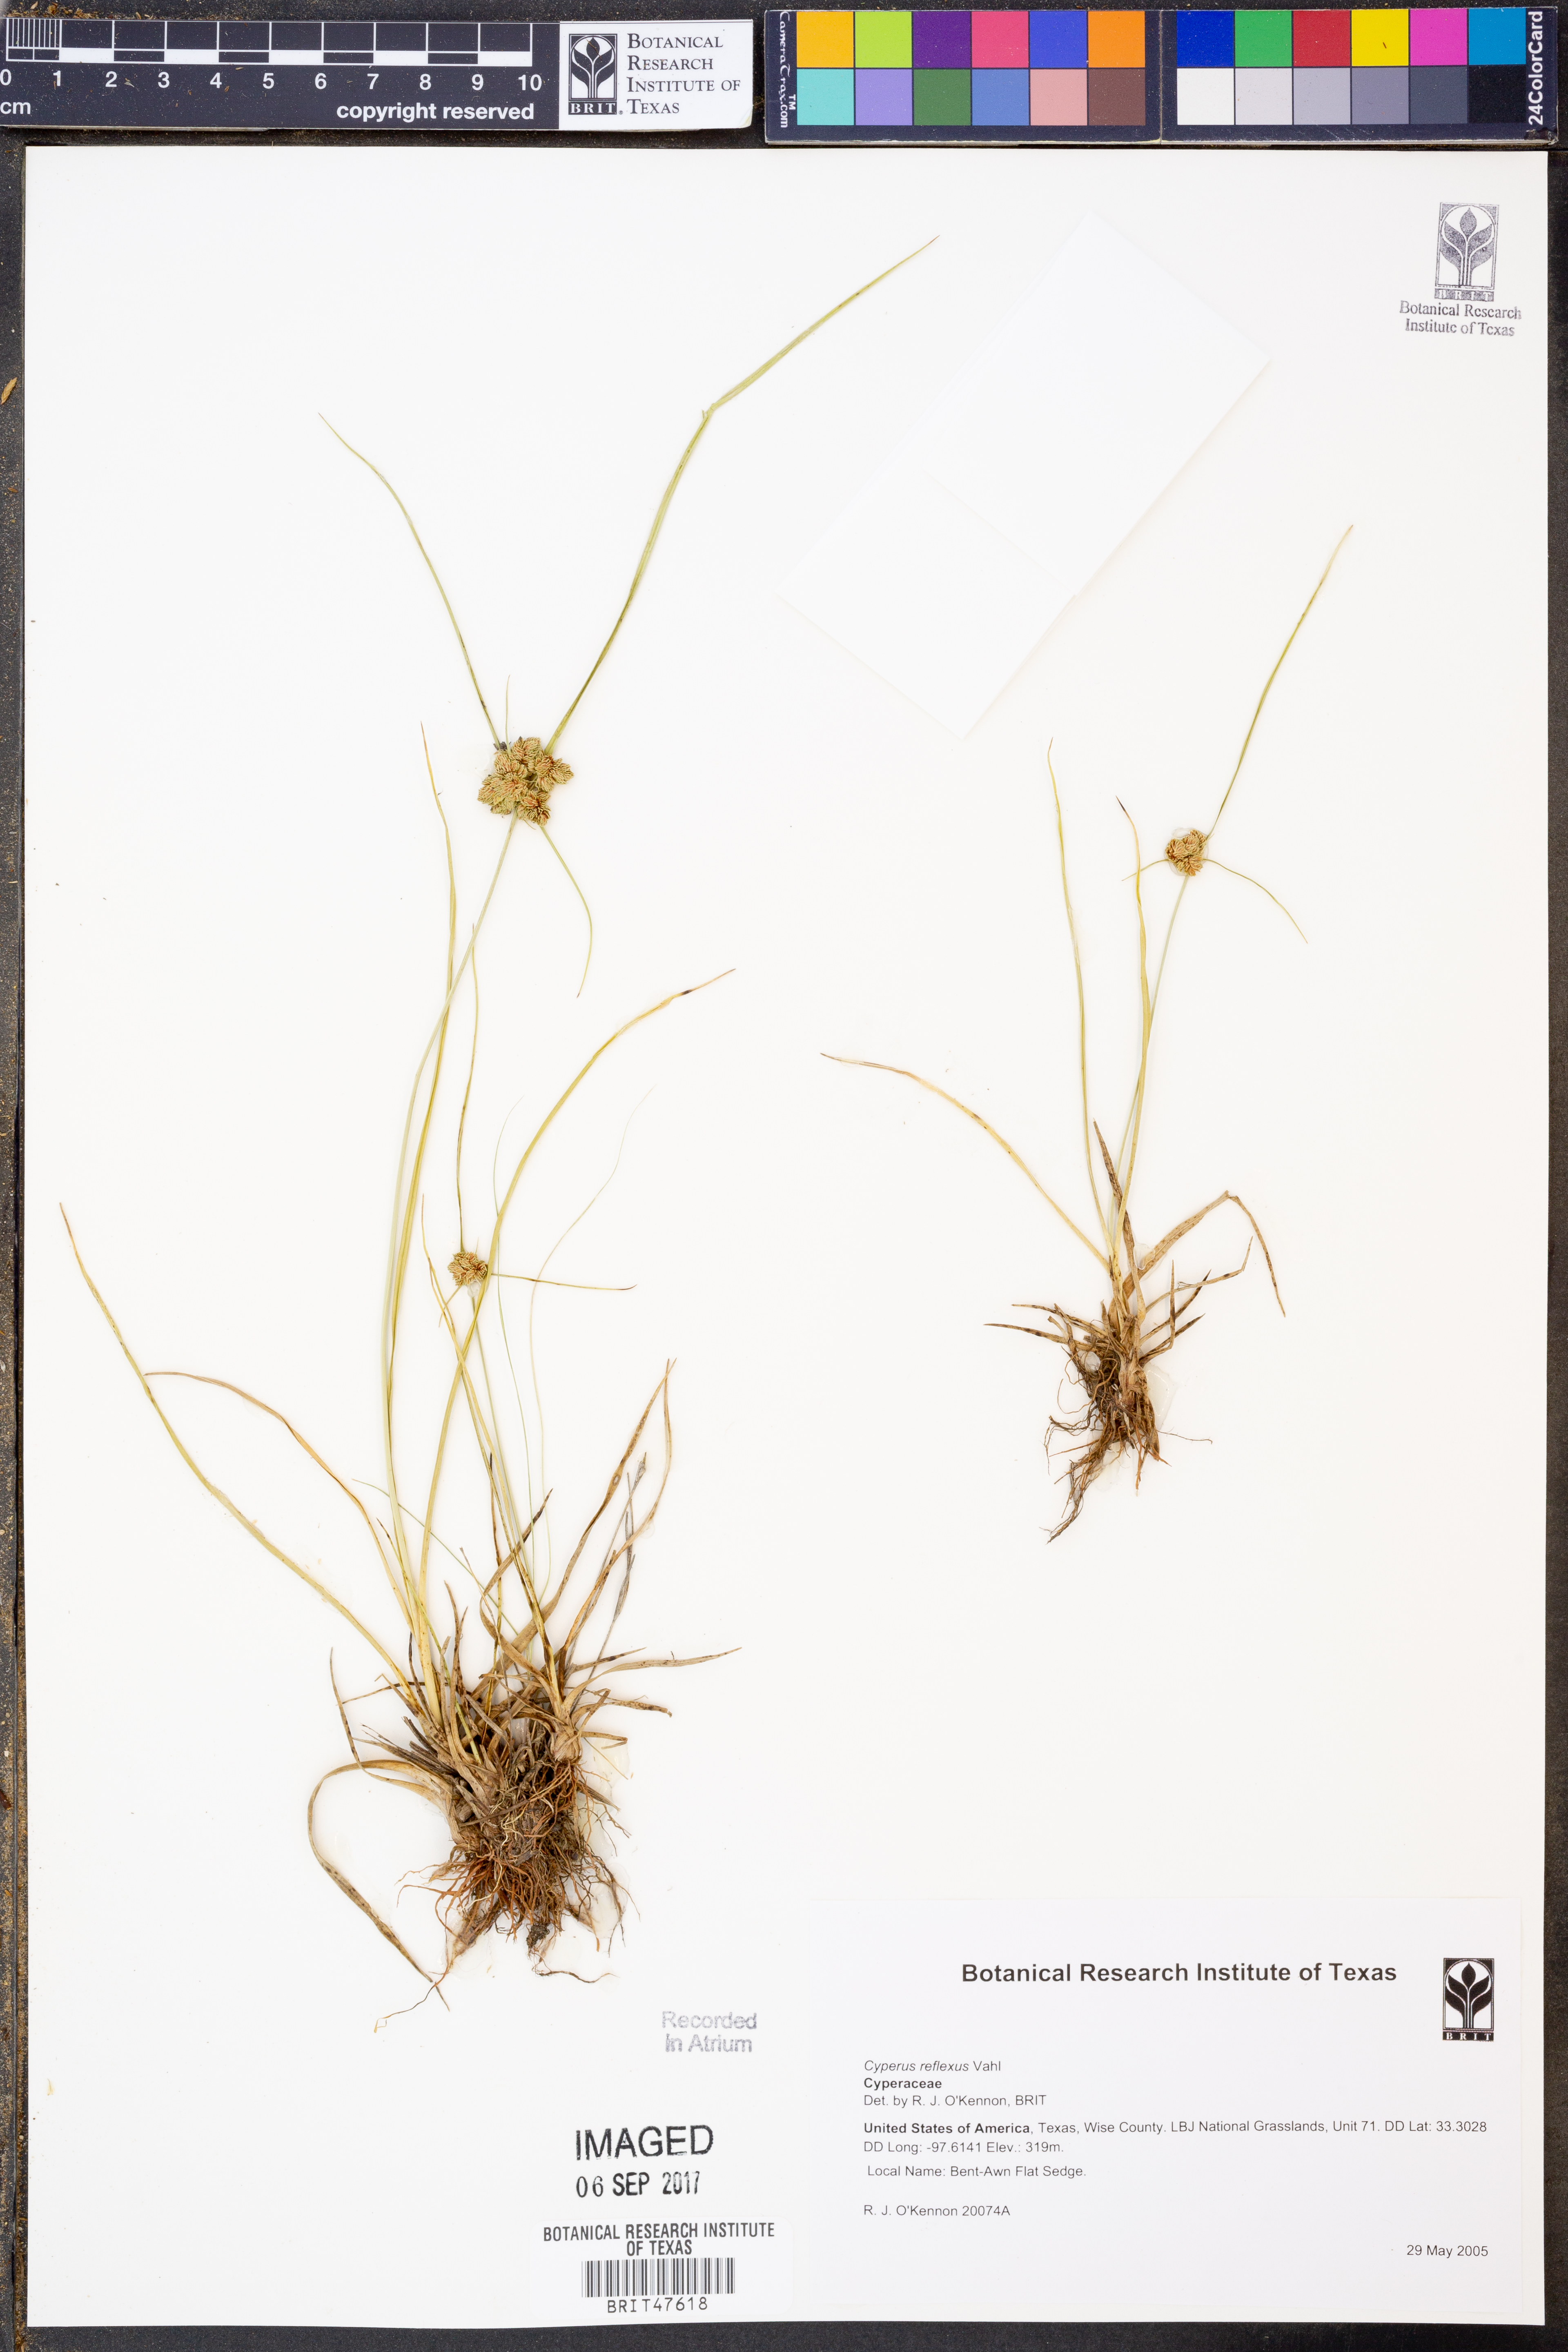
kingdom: Plantae
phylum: Tracheophyta
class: Liliopsida
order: Poales
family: Cyperaceae
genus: Cyperus
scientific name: Cyperus reflexus
